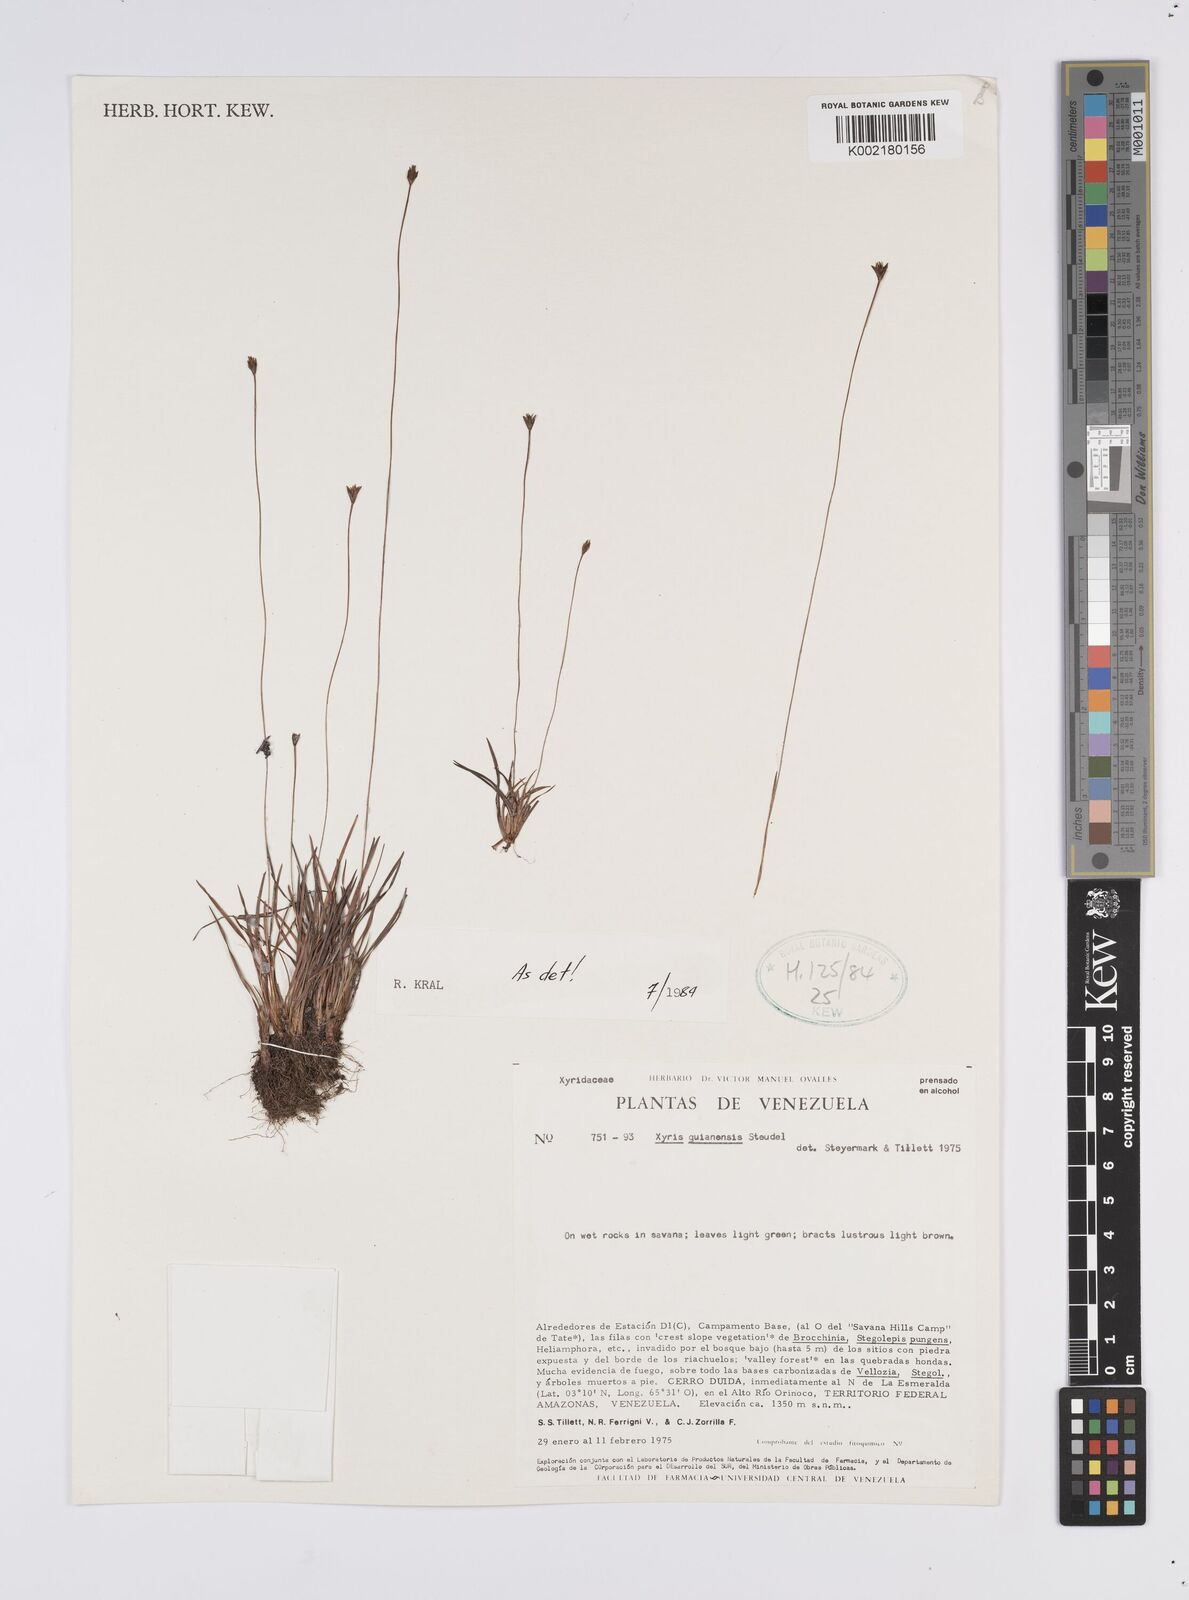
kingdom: Plantae
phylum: Tracheophyta
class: Liliopsida
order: Poales
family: Xyridaceae
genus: Xyris
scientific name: Xyris jupicai
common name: Richard's yelloweyed grass
